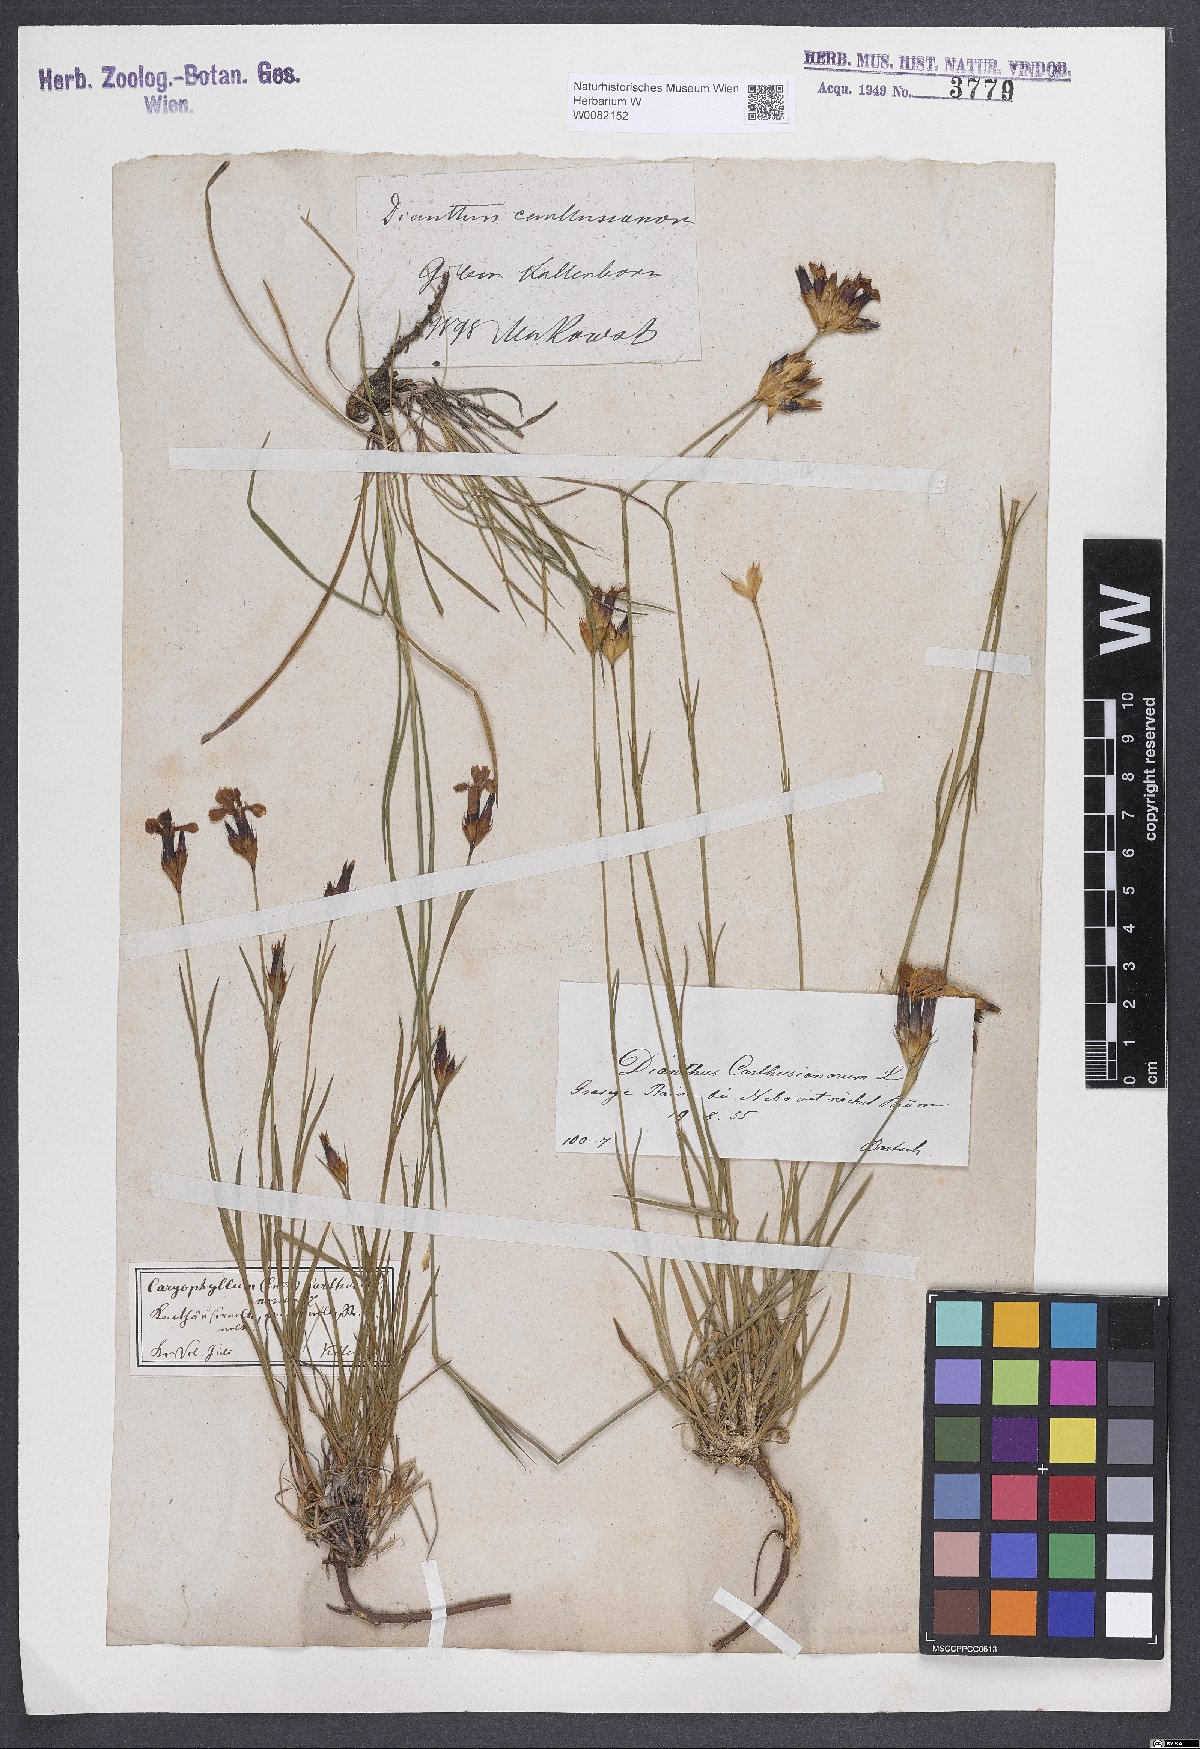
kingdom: Plantae
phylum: Tracheophyta
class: Magnoliopsida
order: Caryophyllales
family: Caryophyllaceae
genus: Dianthus
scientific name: Dianthus carthusianorum
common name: Carthusian pink
